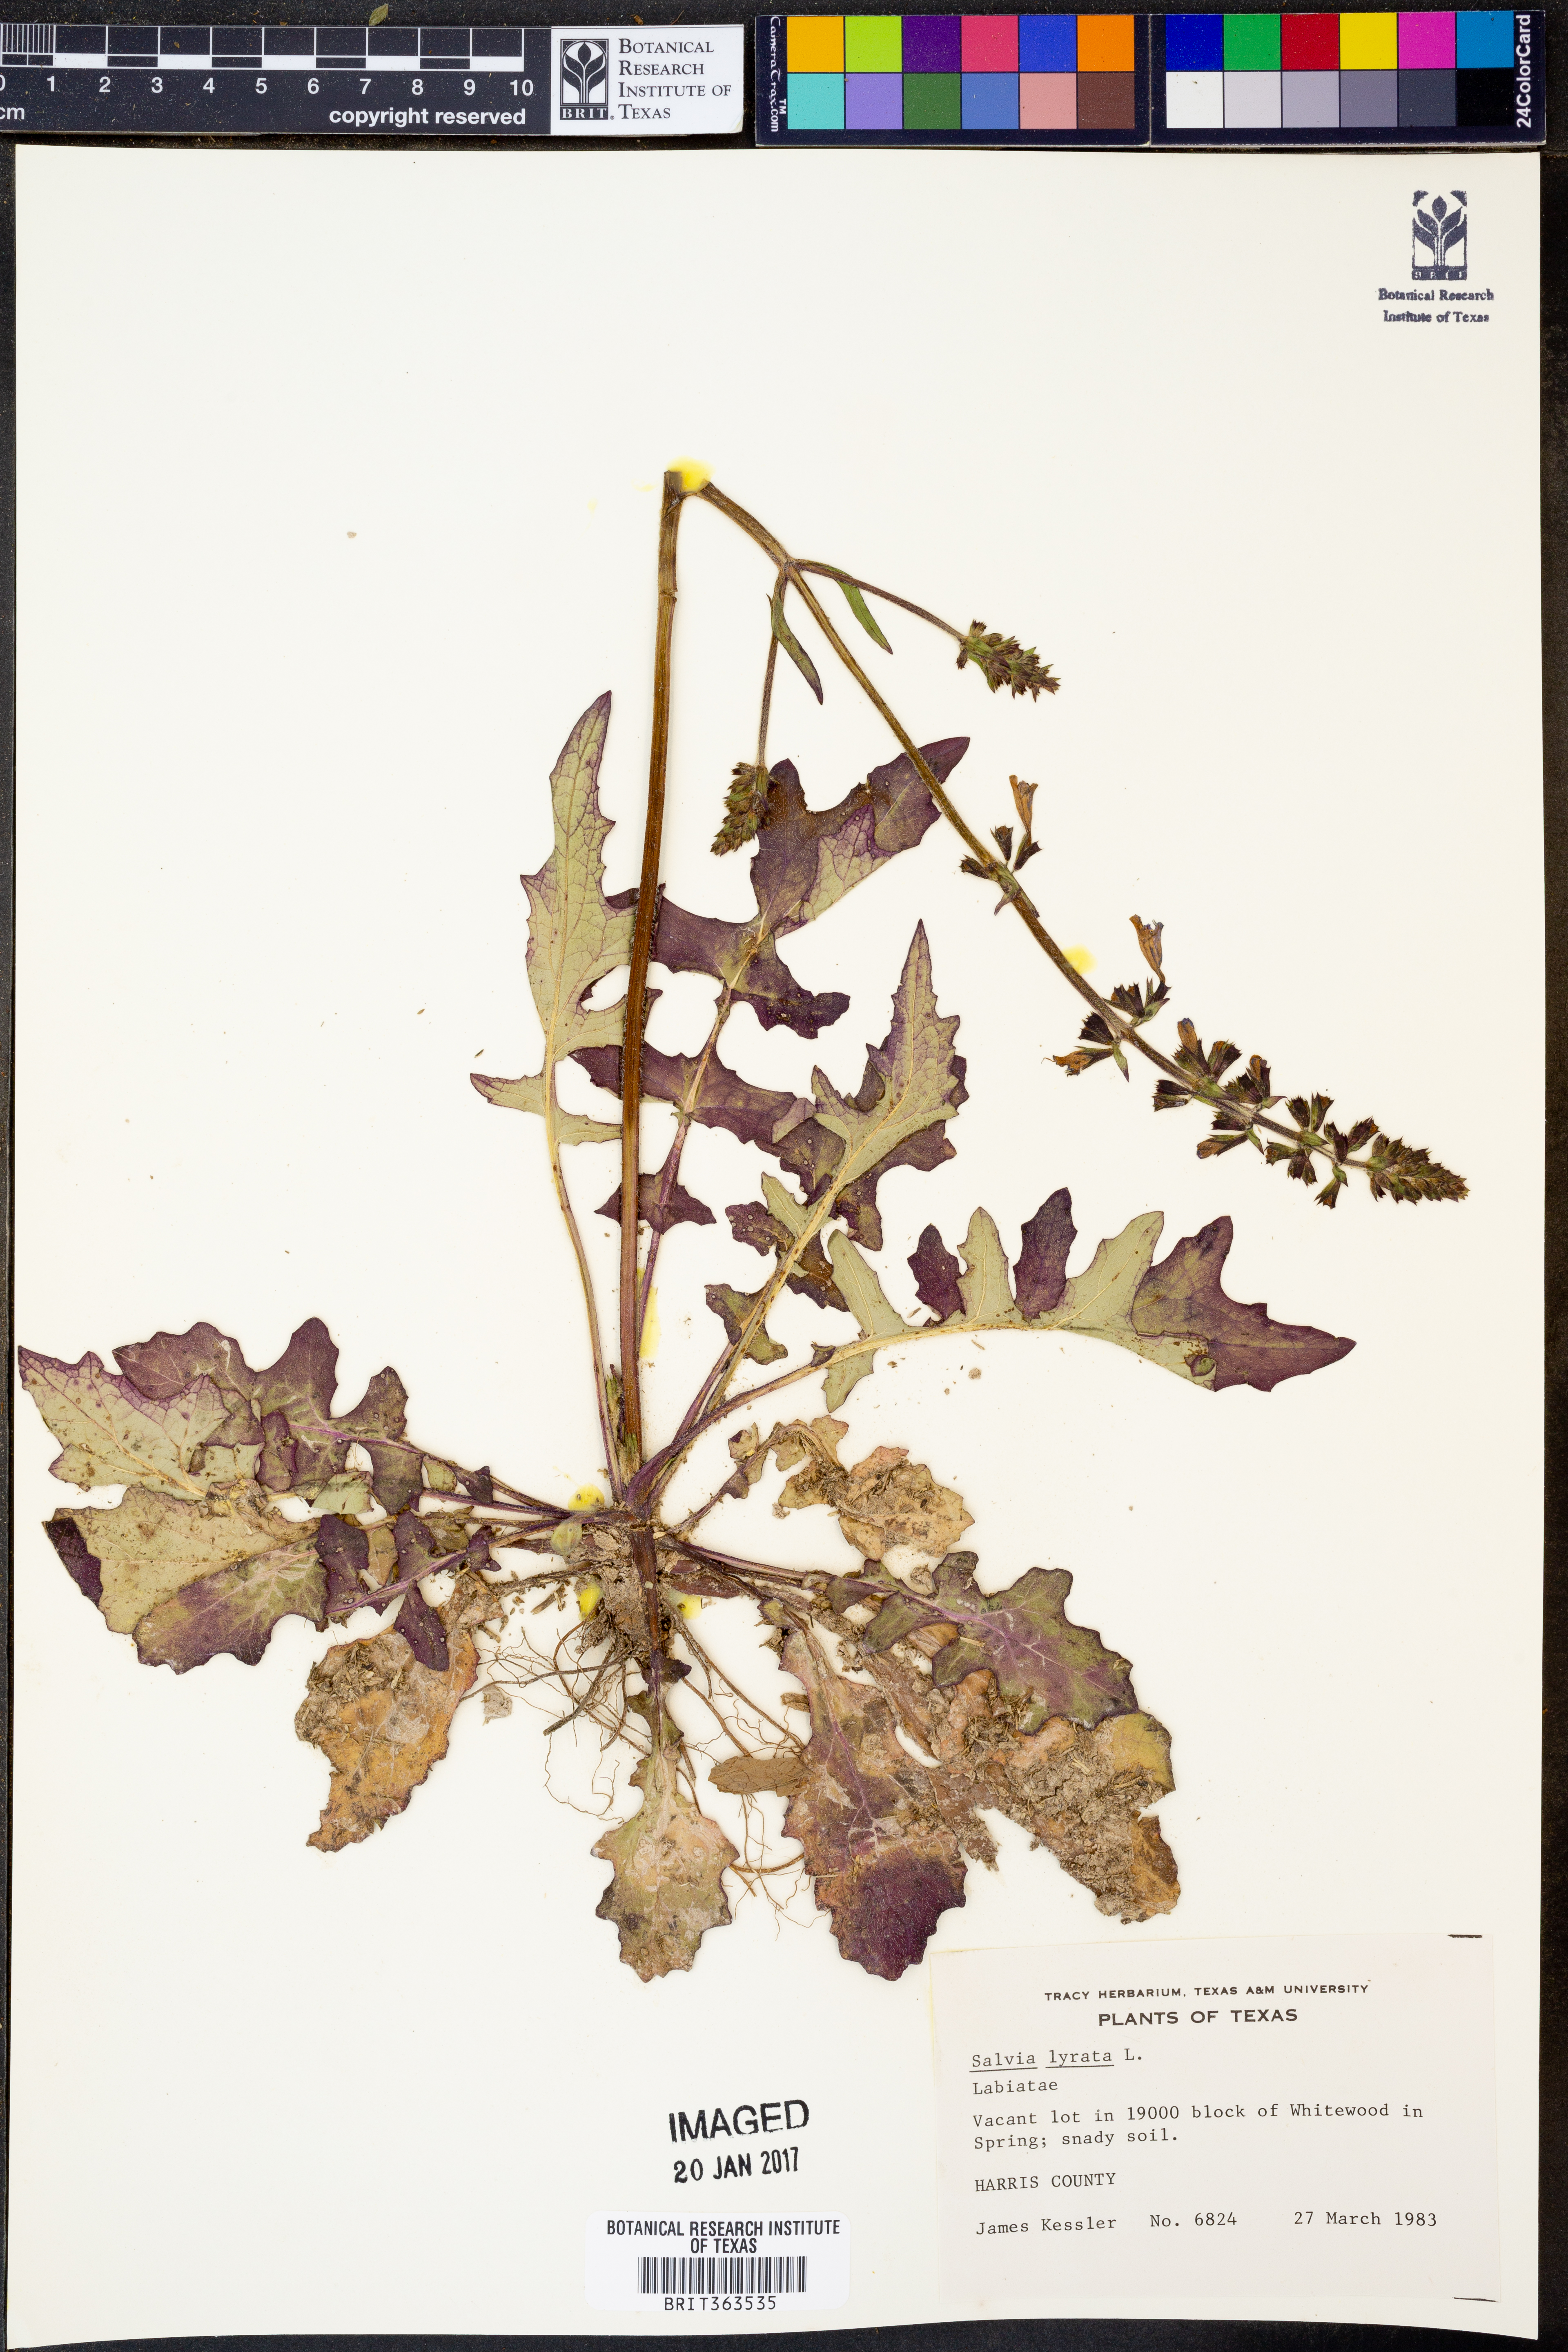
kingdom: Plantae
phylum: Tracheophyta
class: Magnoliopsida
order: Lamiales
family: Lamiaceae
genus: Salvia
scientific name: Salvia lyrata
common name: Cancerweed
